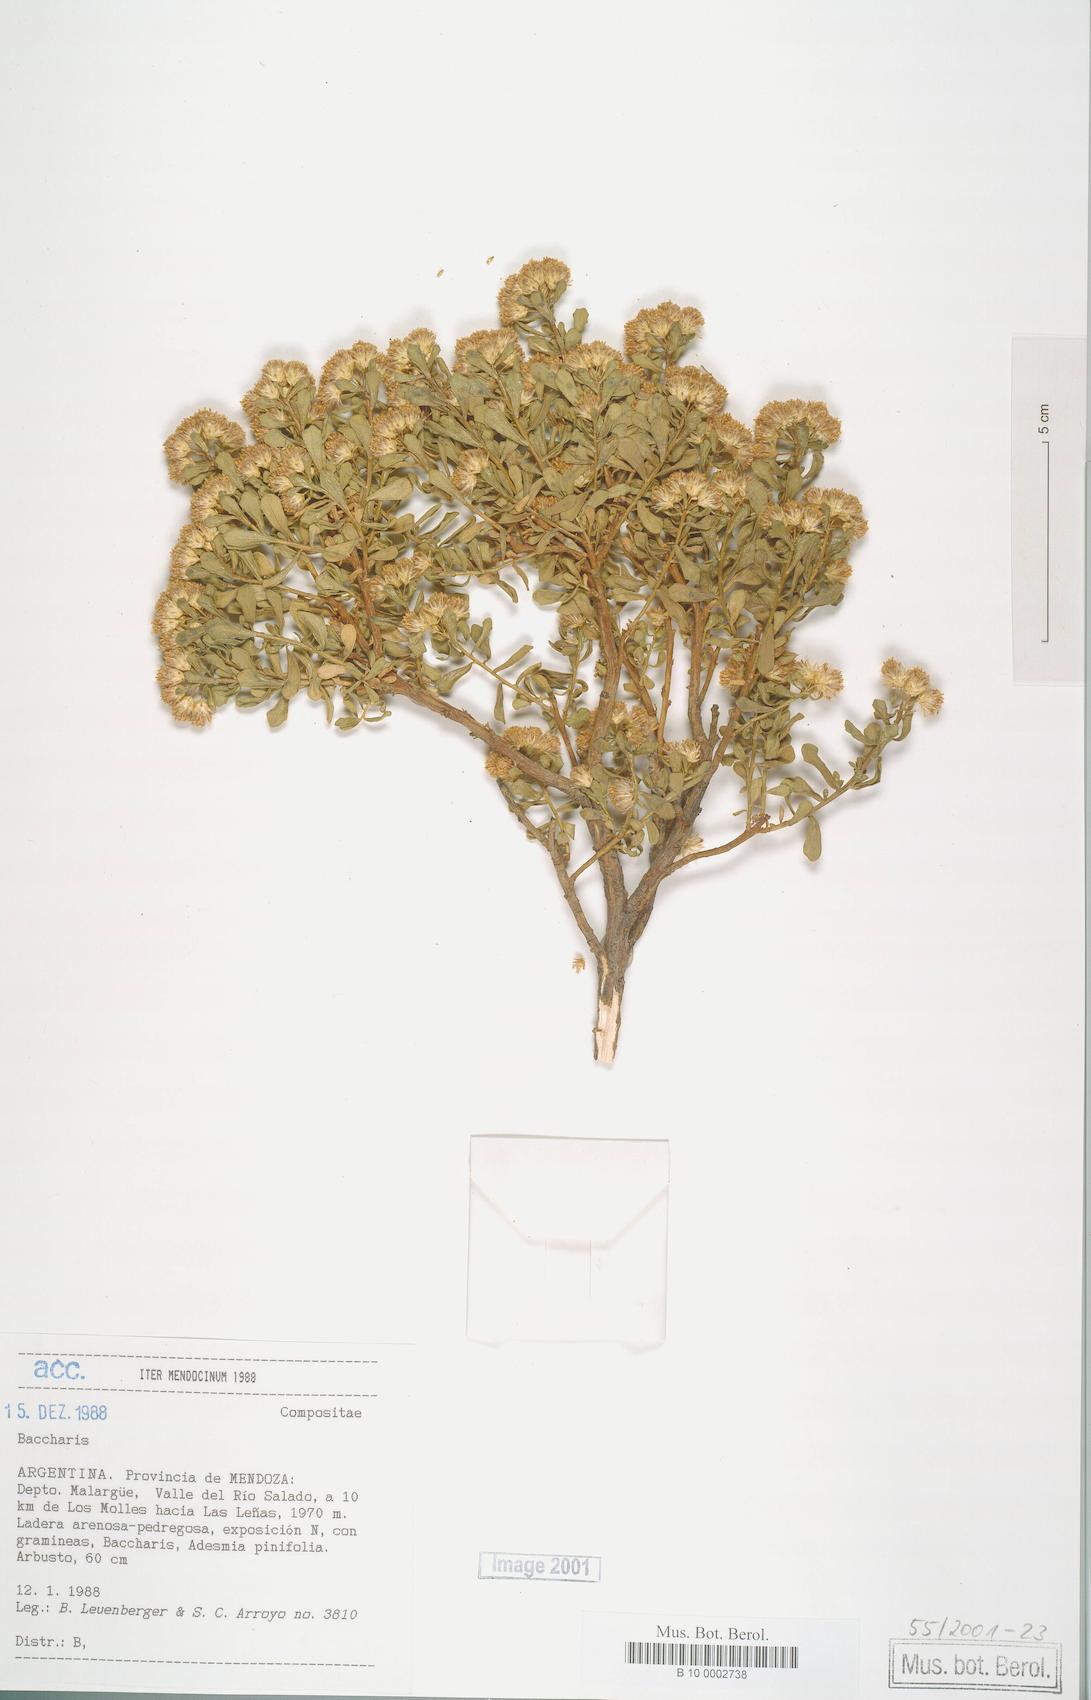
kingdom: Plantae
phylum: Tracheophyta
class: Magnoliopsida
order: Asterales
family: Asteraceae
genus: Baccharis
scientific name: Baccharis
